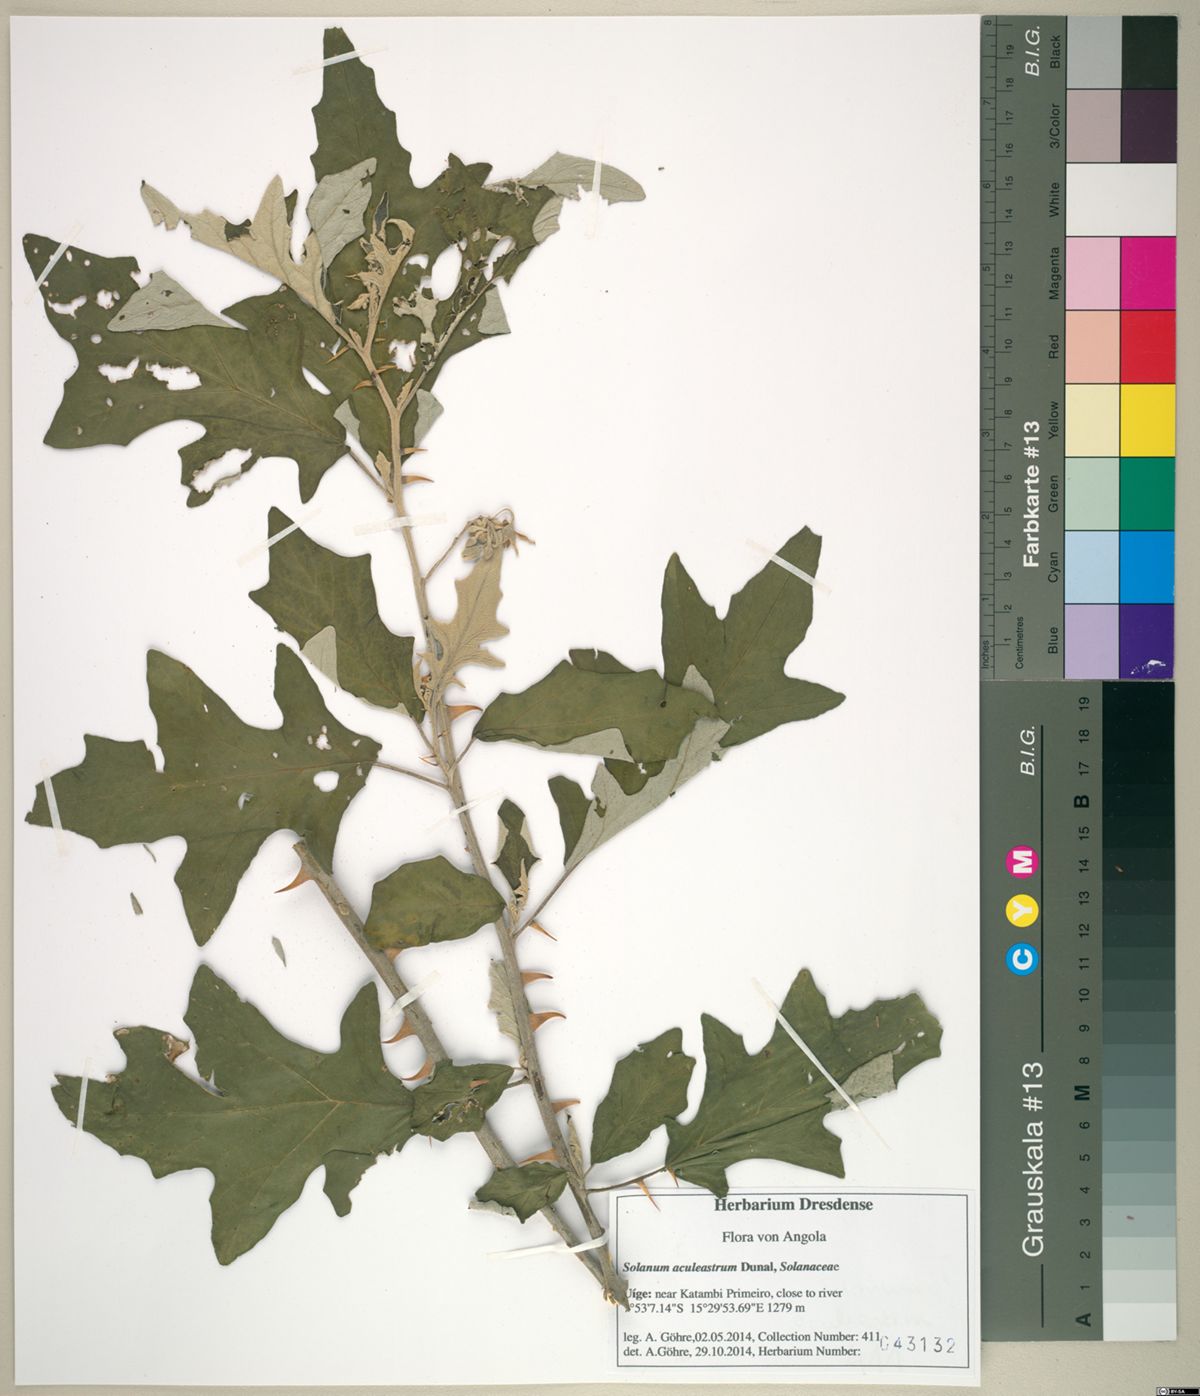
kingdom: Plantae
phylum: Tracheophyta
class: Magnoliopsida
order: Solanales
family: Solanaceae
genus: Solanum
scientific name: Solanum aculeastrum
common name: Goat bitter-apple
